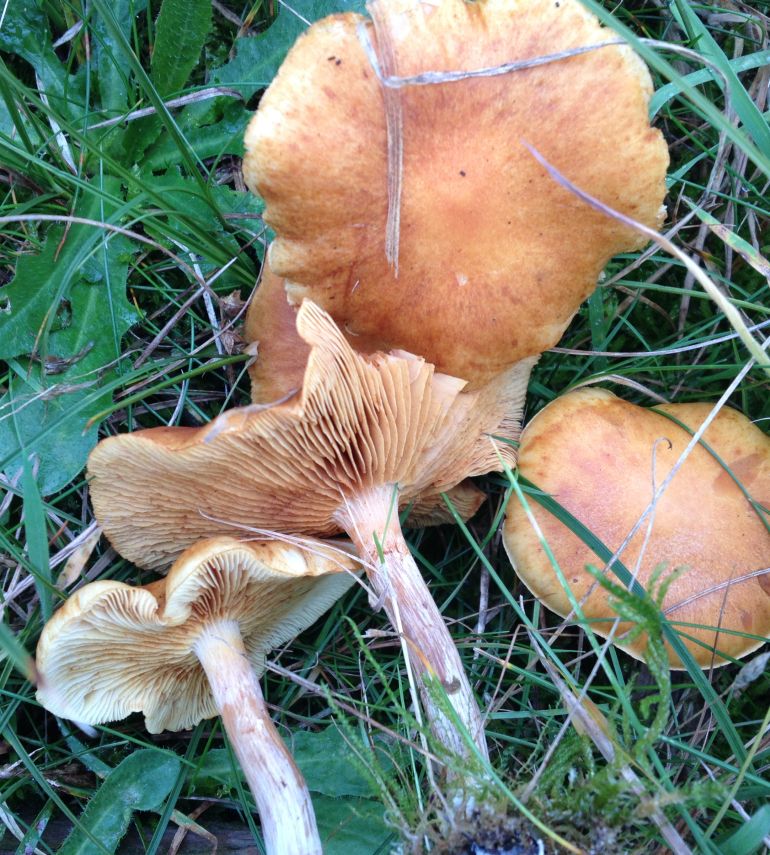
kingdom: Fungi
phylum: Basidiomycota
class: Agaricomycetes
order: Agaricales
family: Hymenogastraceae
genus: Gymnopilus
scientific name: Gymnopilus penetrans
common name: plettet flammehat
